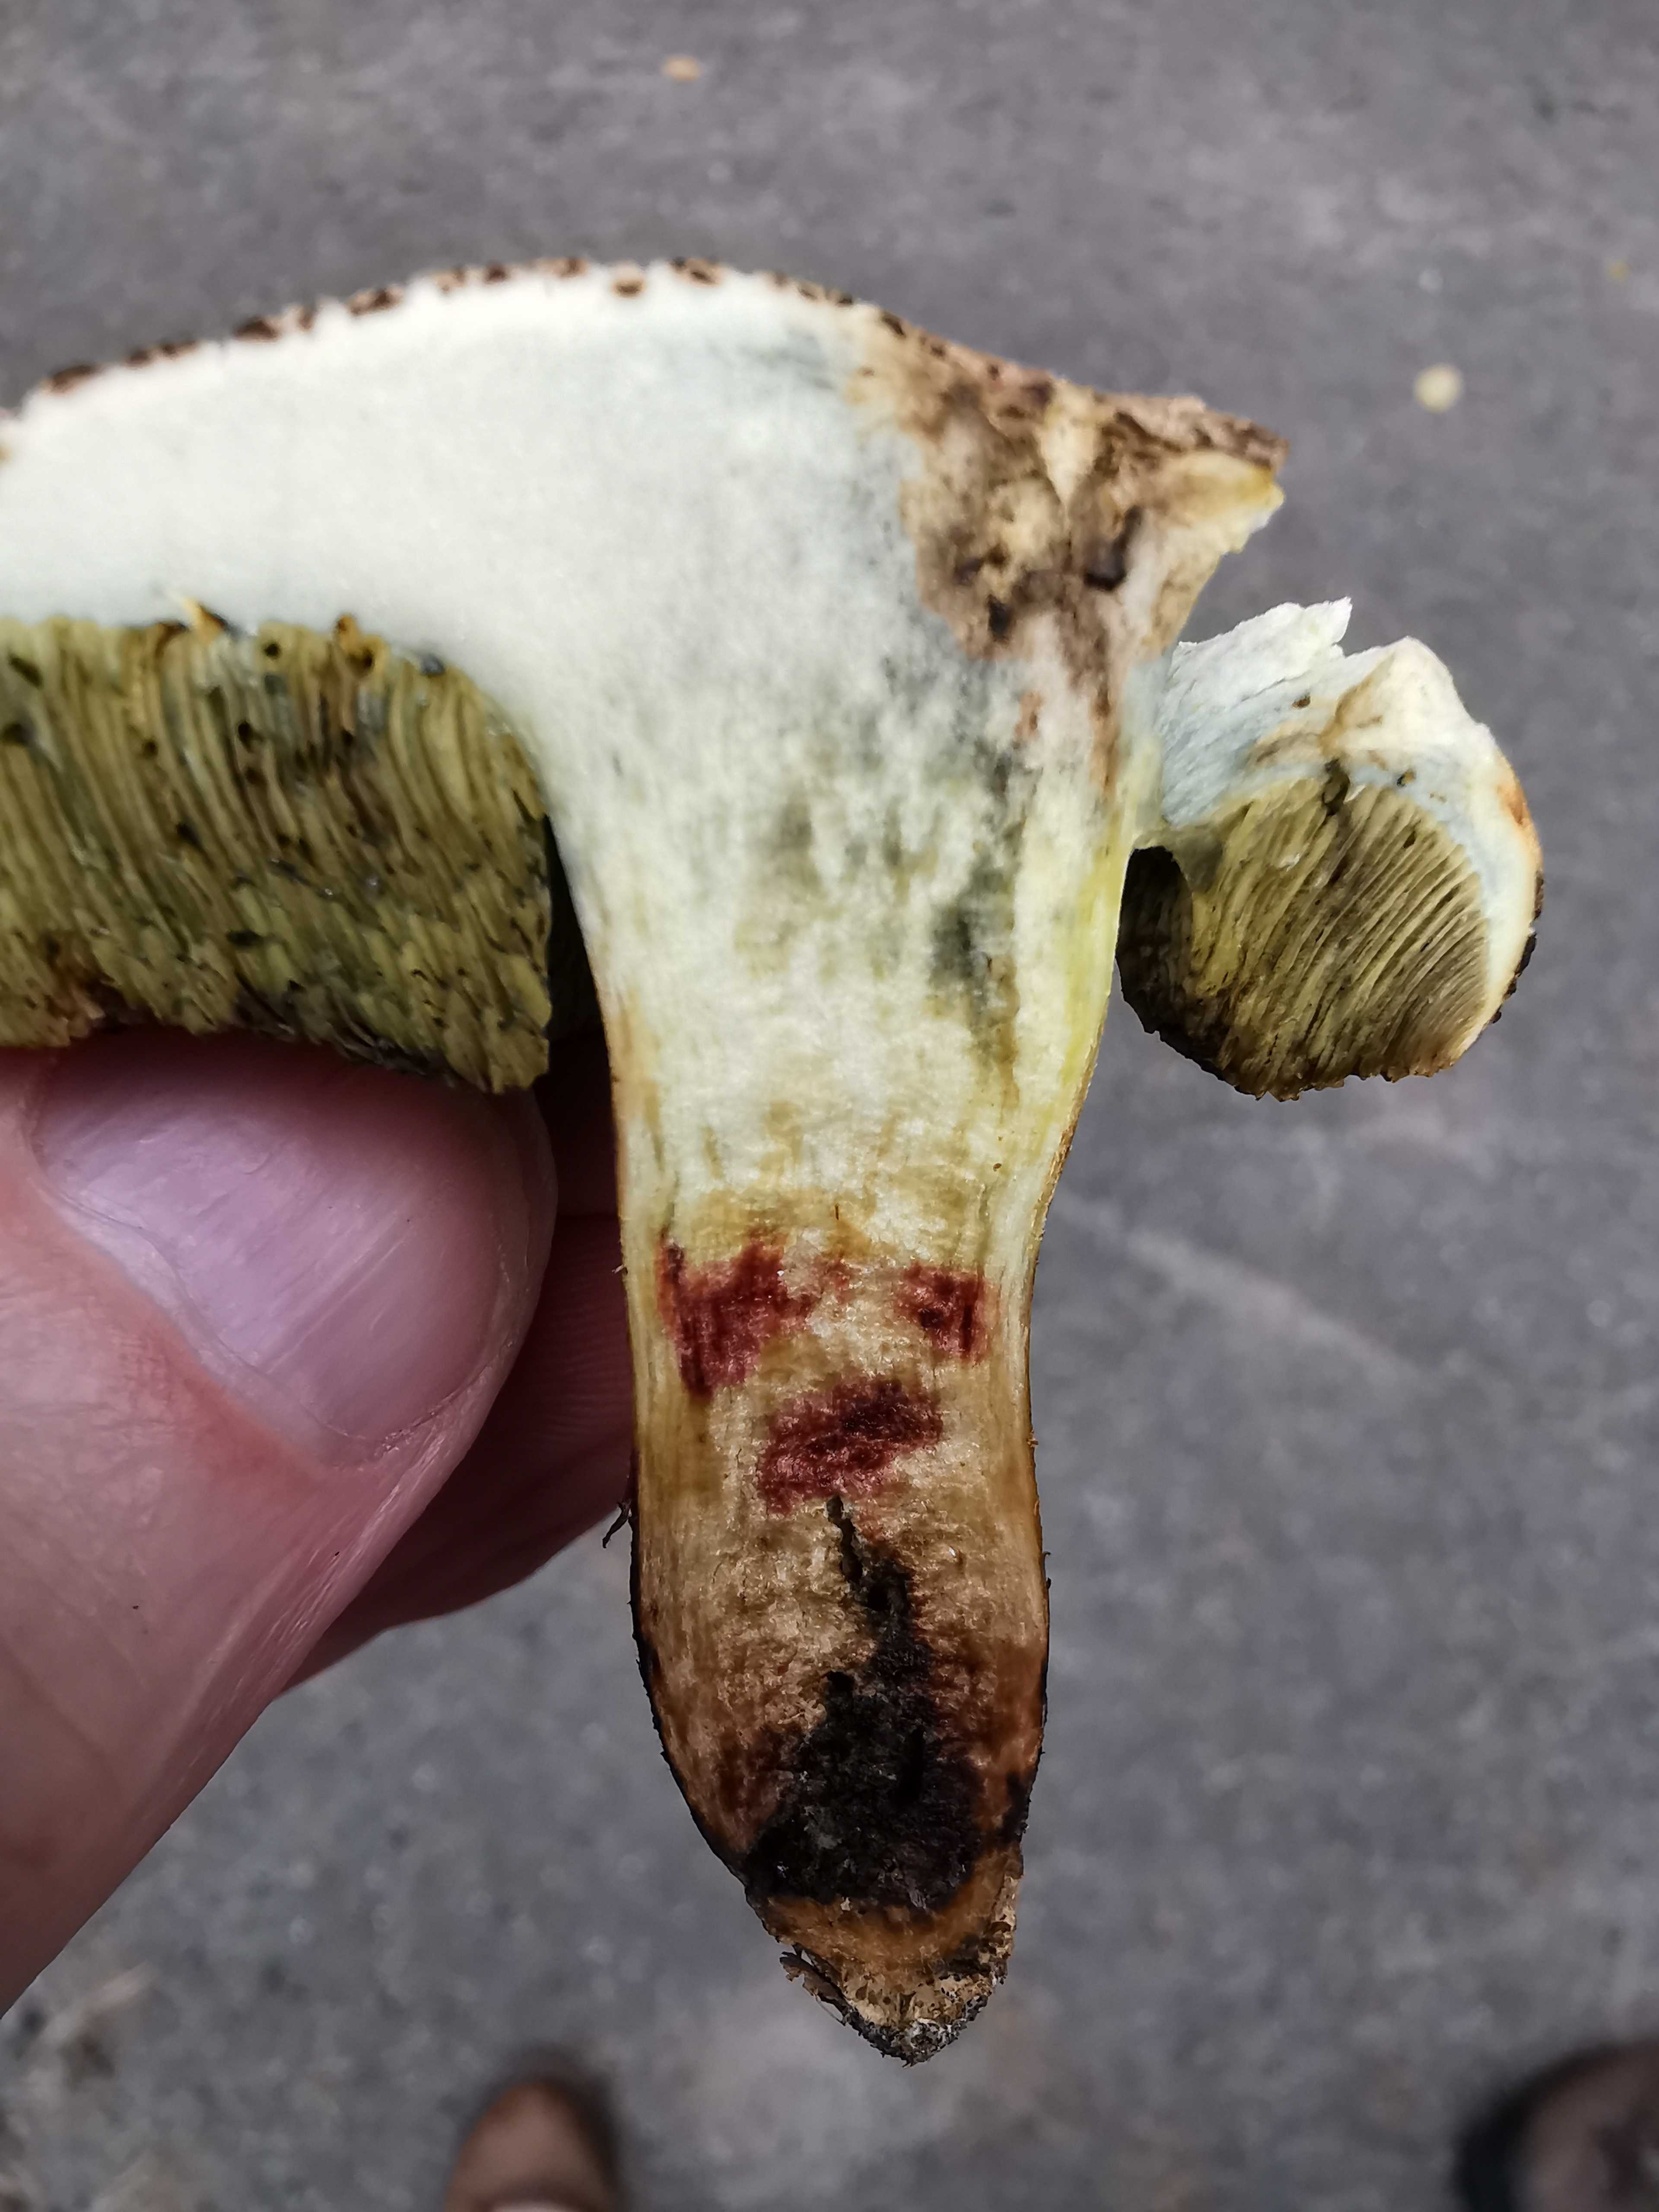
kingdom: Fungi
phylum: Basidiomycota
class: Agaricomycetes
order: Boletales
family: Boletaceae
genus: Xerocomellus
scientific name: Xerocomellus porosporus
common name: hvidsprukken rørhat
